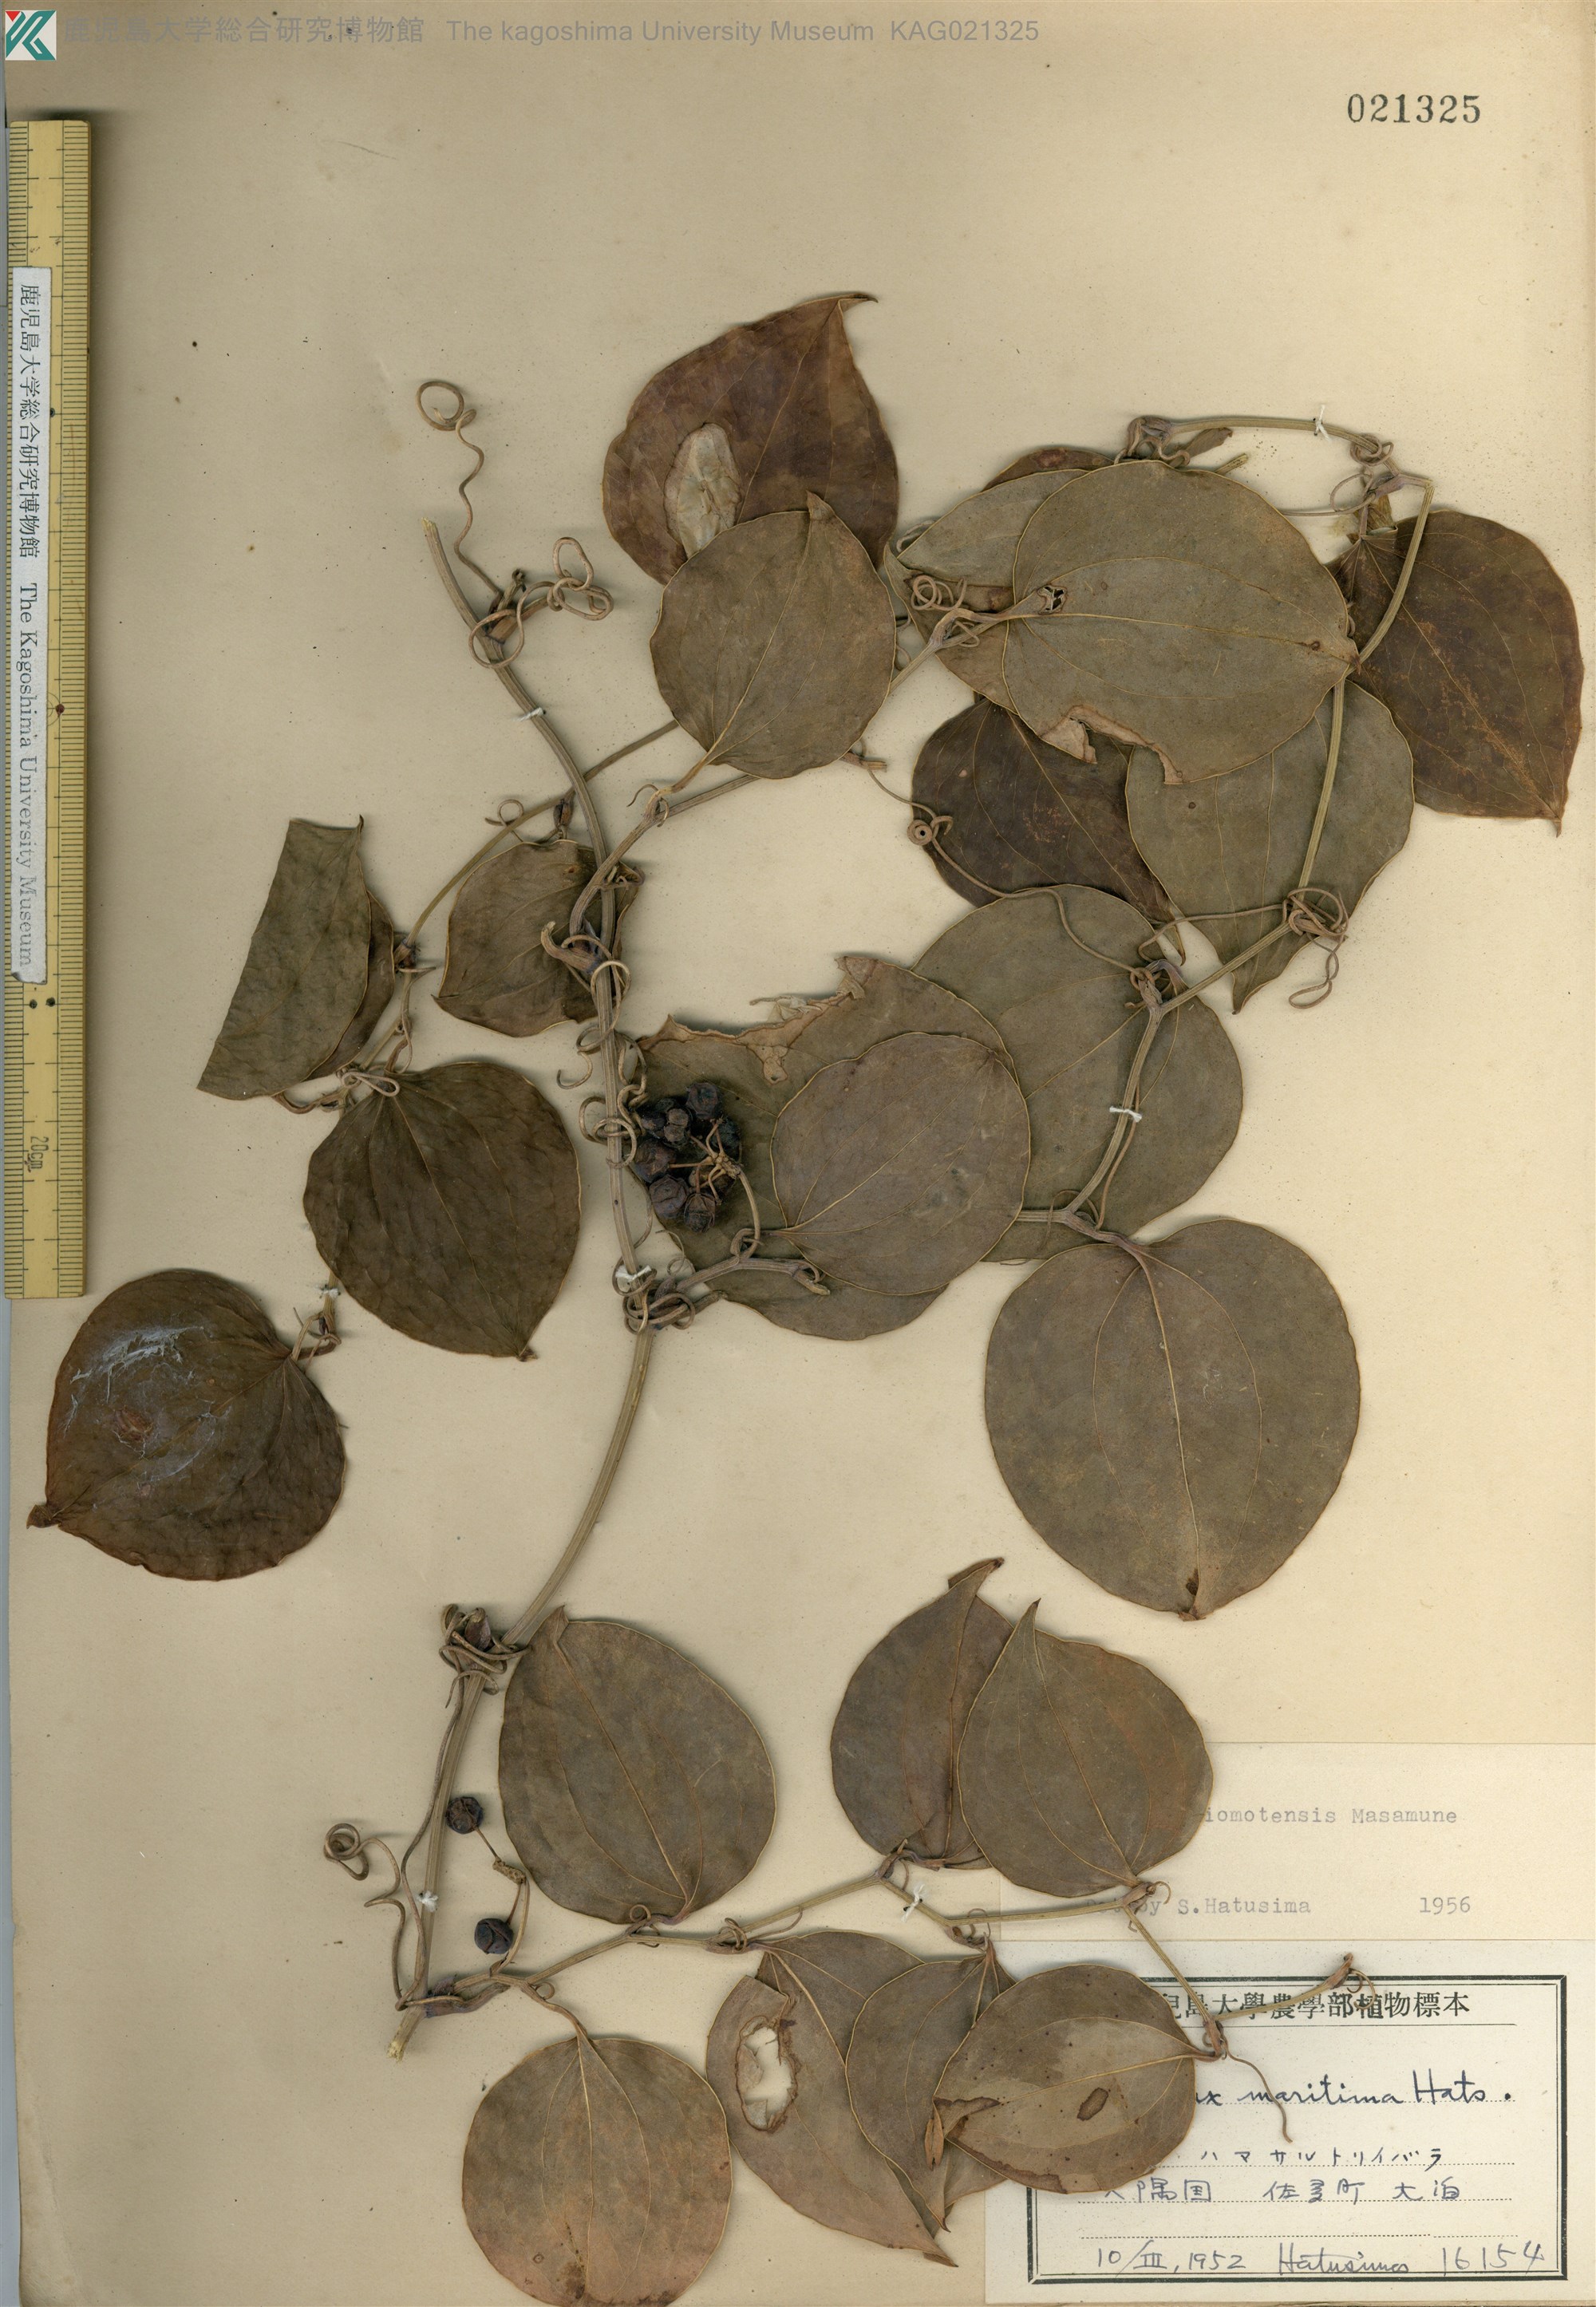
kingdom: Plantae
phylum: Tracheophyta
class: Liliopsida
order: Liliales
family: Smilacaceae
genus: Smilax
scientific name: Smilax sebeana
